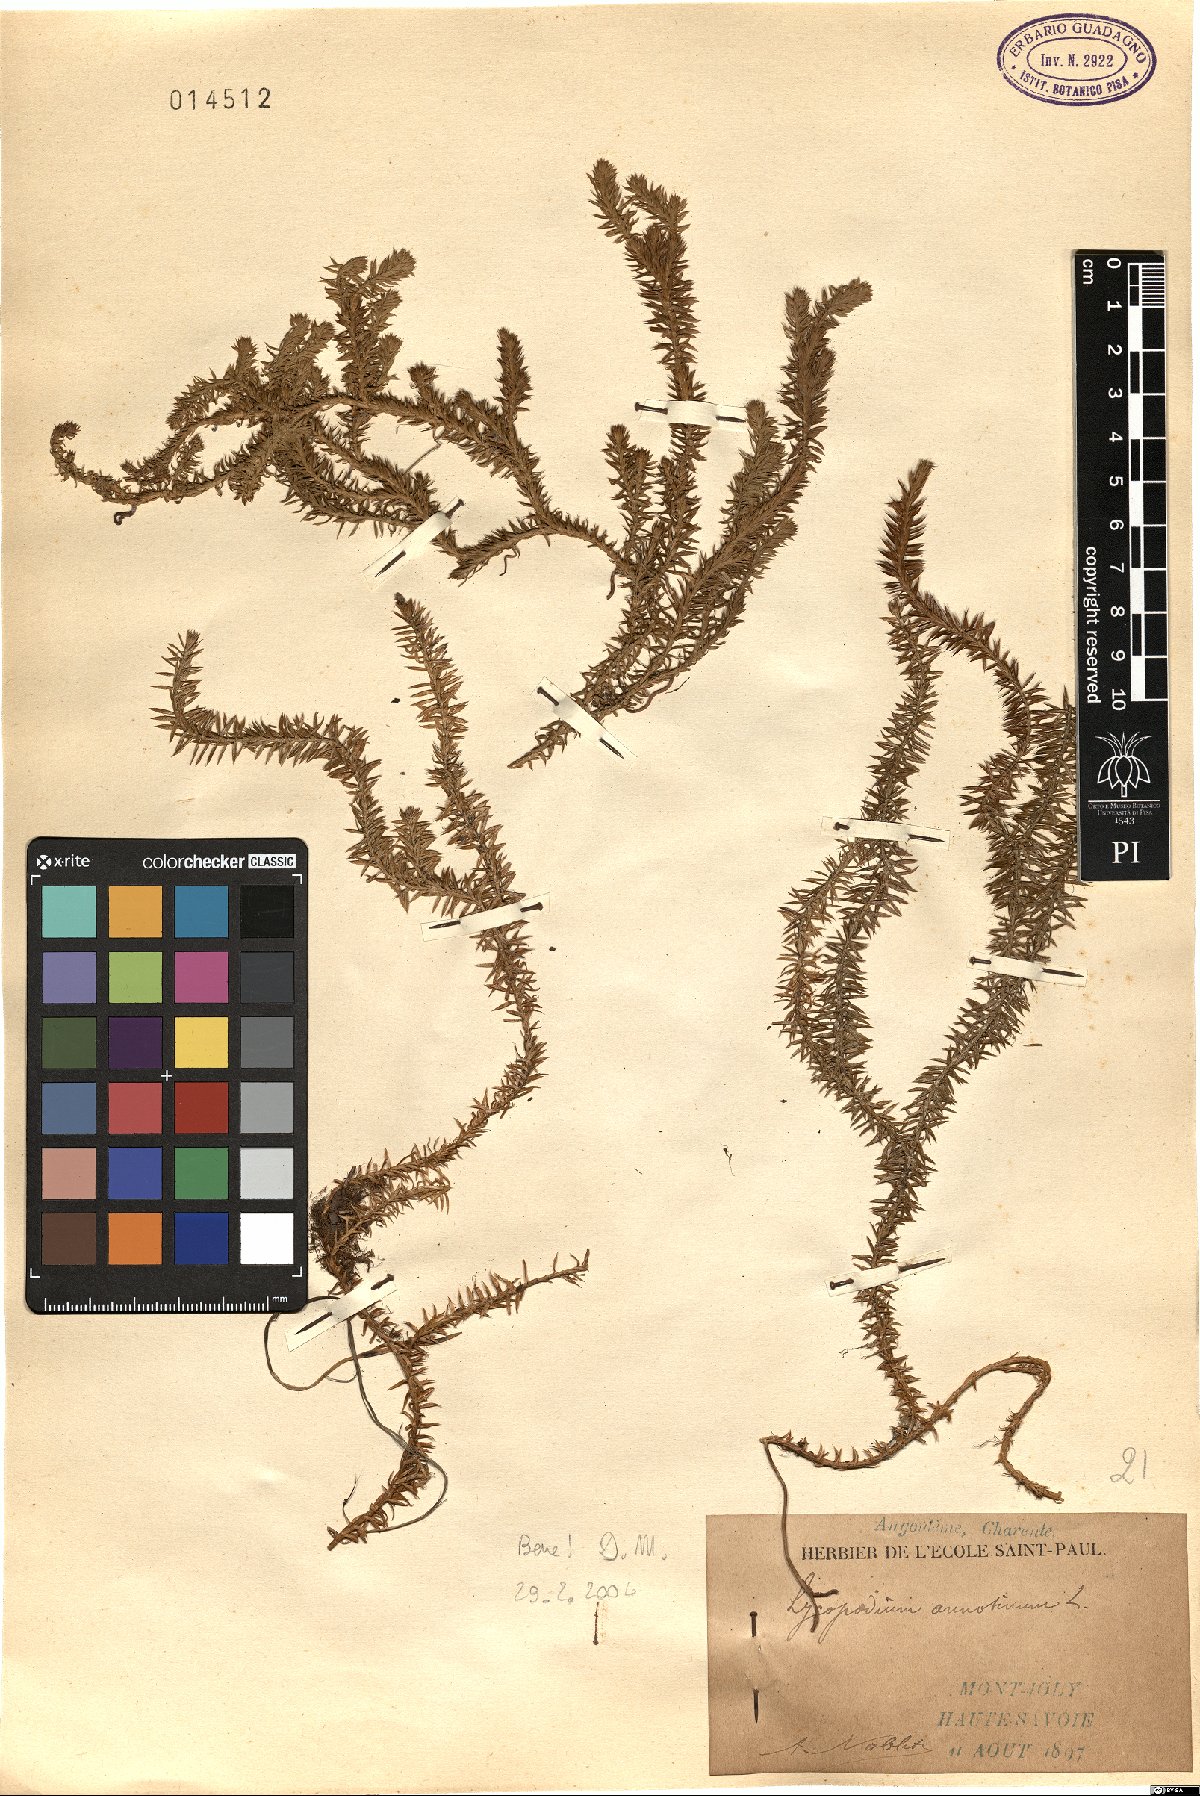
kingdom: Plantae
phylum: Tracheophyta
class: Lycopodiopsida
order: Lycopodiales
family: Lycopodiaceae
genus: Spinulum
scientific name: Spinulum annotinum
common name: Interrupted club-moss
